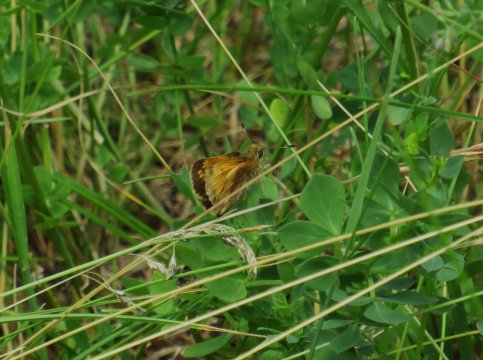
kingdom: Animalia
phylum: Arthropoda
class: Insecta
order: Lepidoptera
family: Hesperiidae
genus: Lon
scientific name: Lon hobomok
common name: Hobomok Skipper
